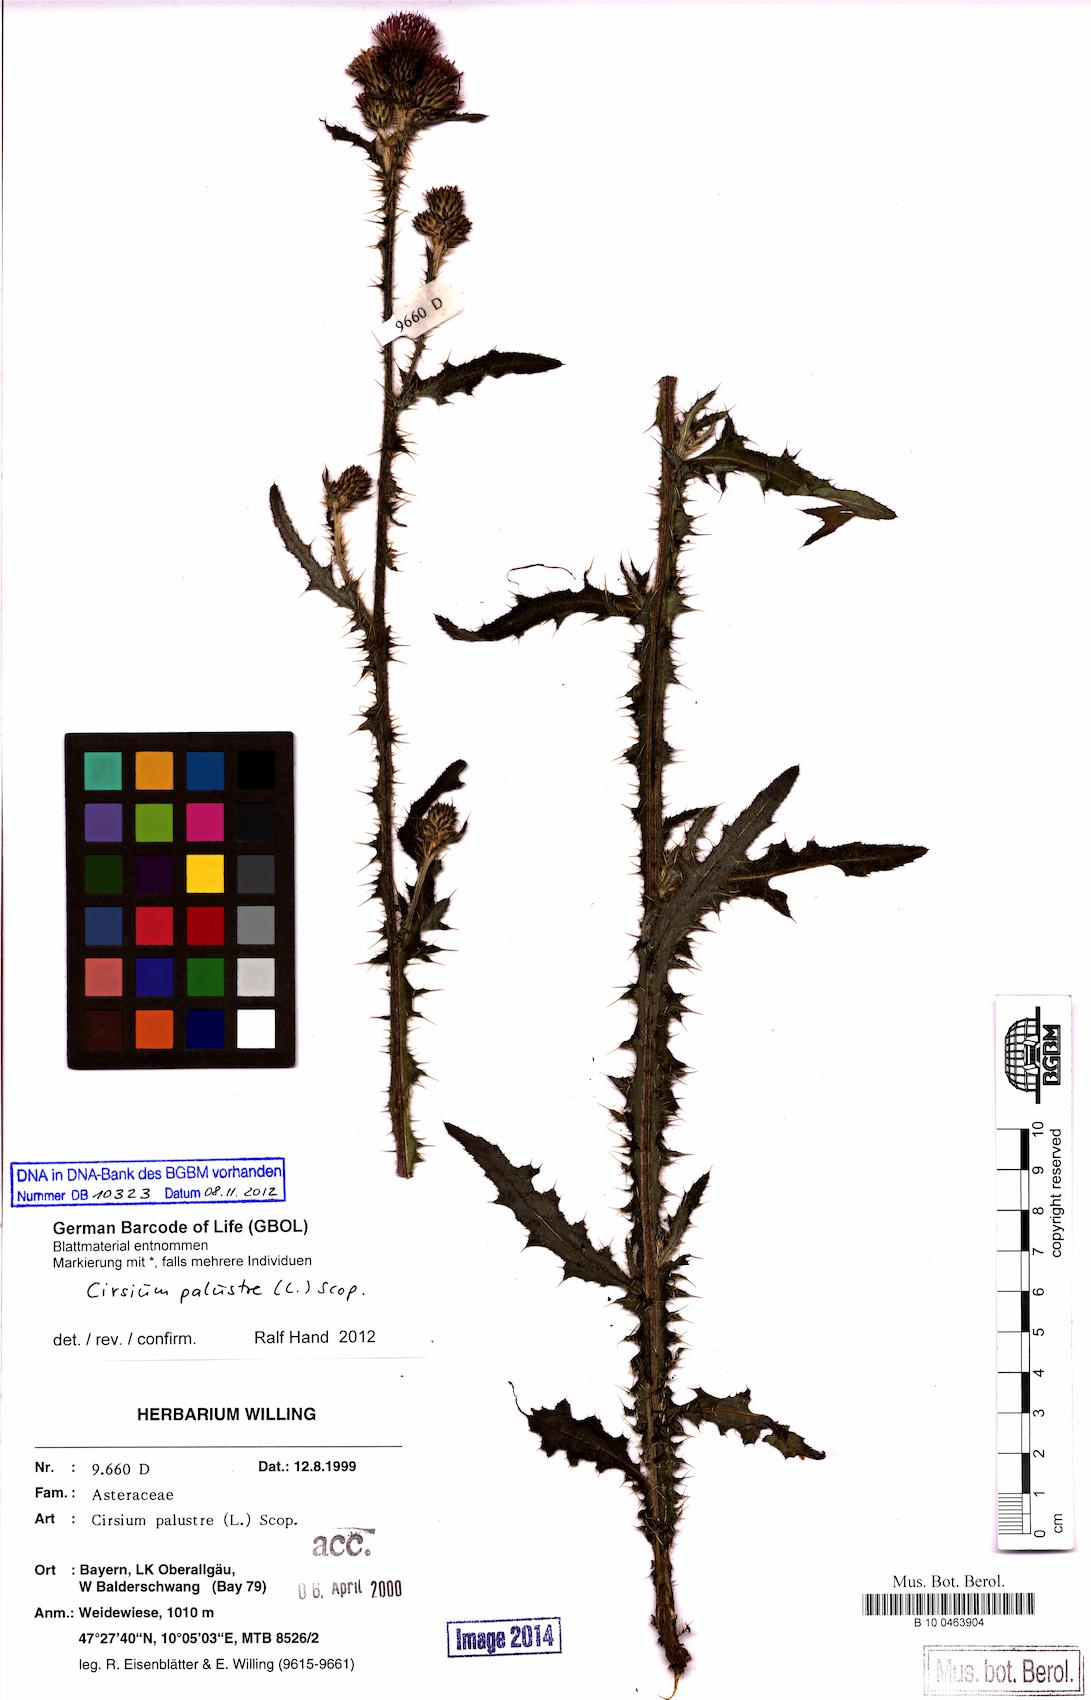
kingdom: Plantae
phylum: Tracheophyta
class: Magnoliopsida
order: Asterales
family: Asteraceae
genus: Cirsium
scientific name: Cirsium palustre
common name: Marsh thistle
